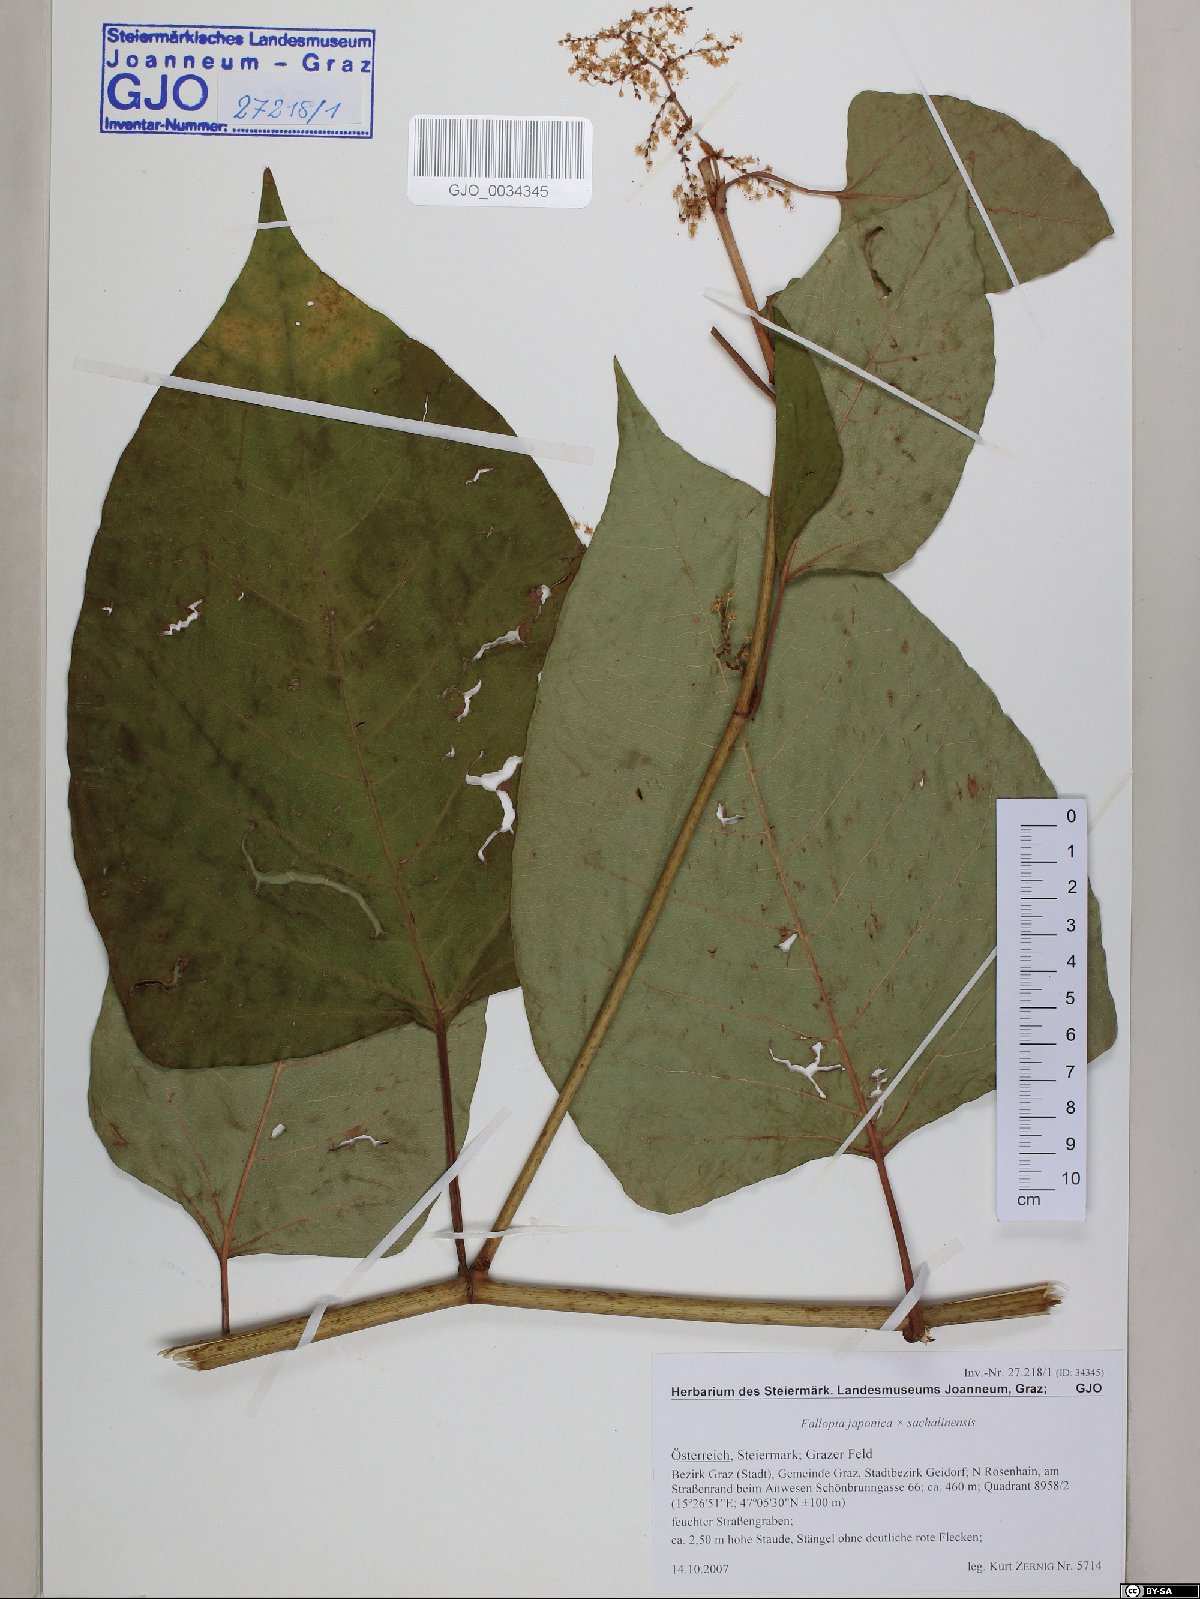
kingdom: Plantae
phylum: Tracheophyta
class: Magnoliopsida
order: Caryophyllales
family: Polygonaceae
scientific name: Polygonaceae
